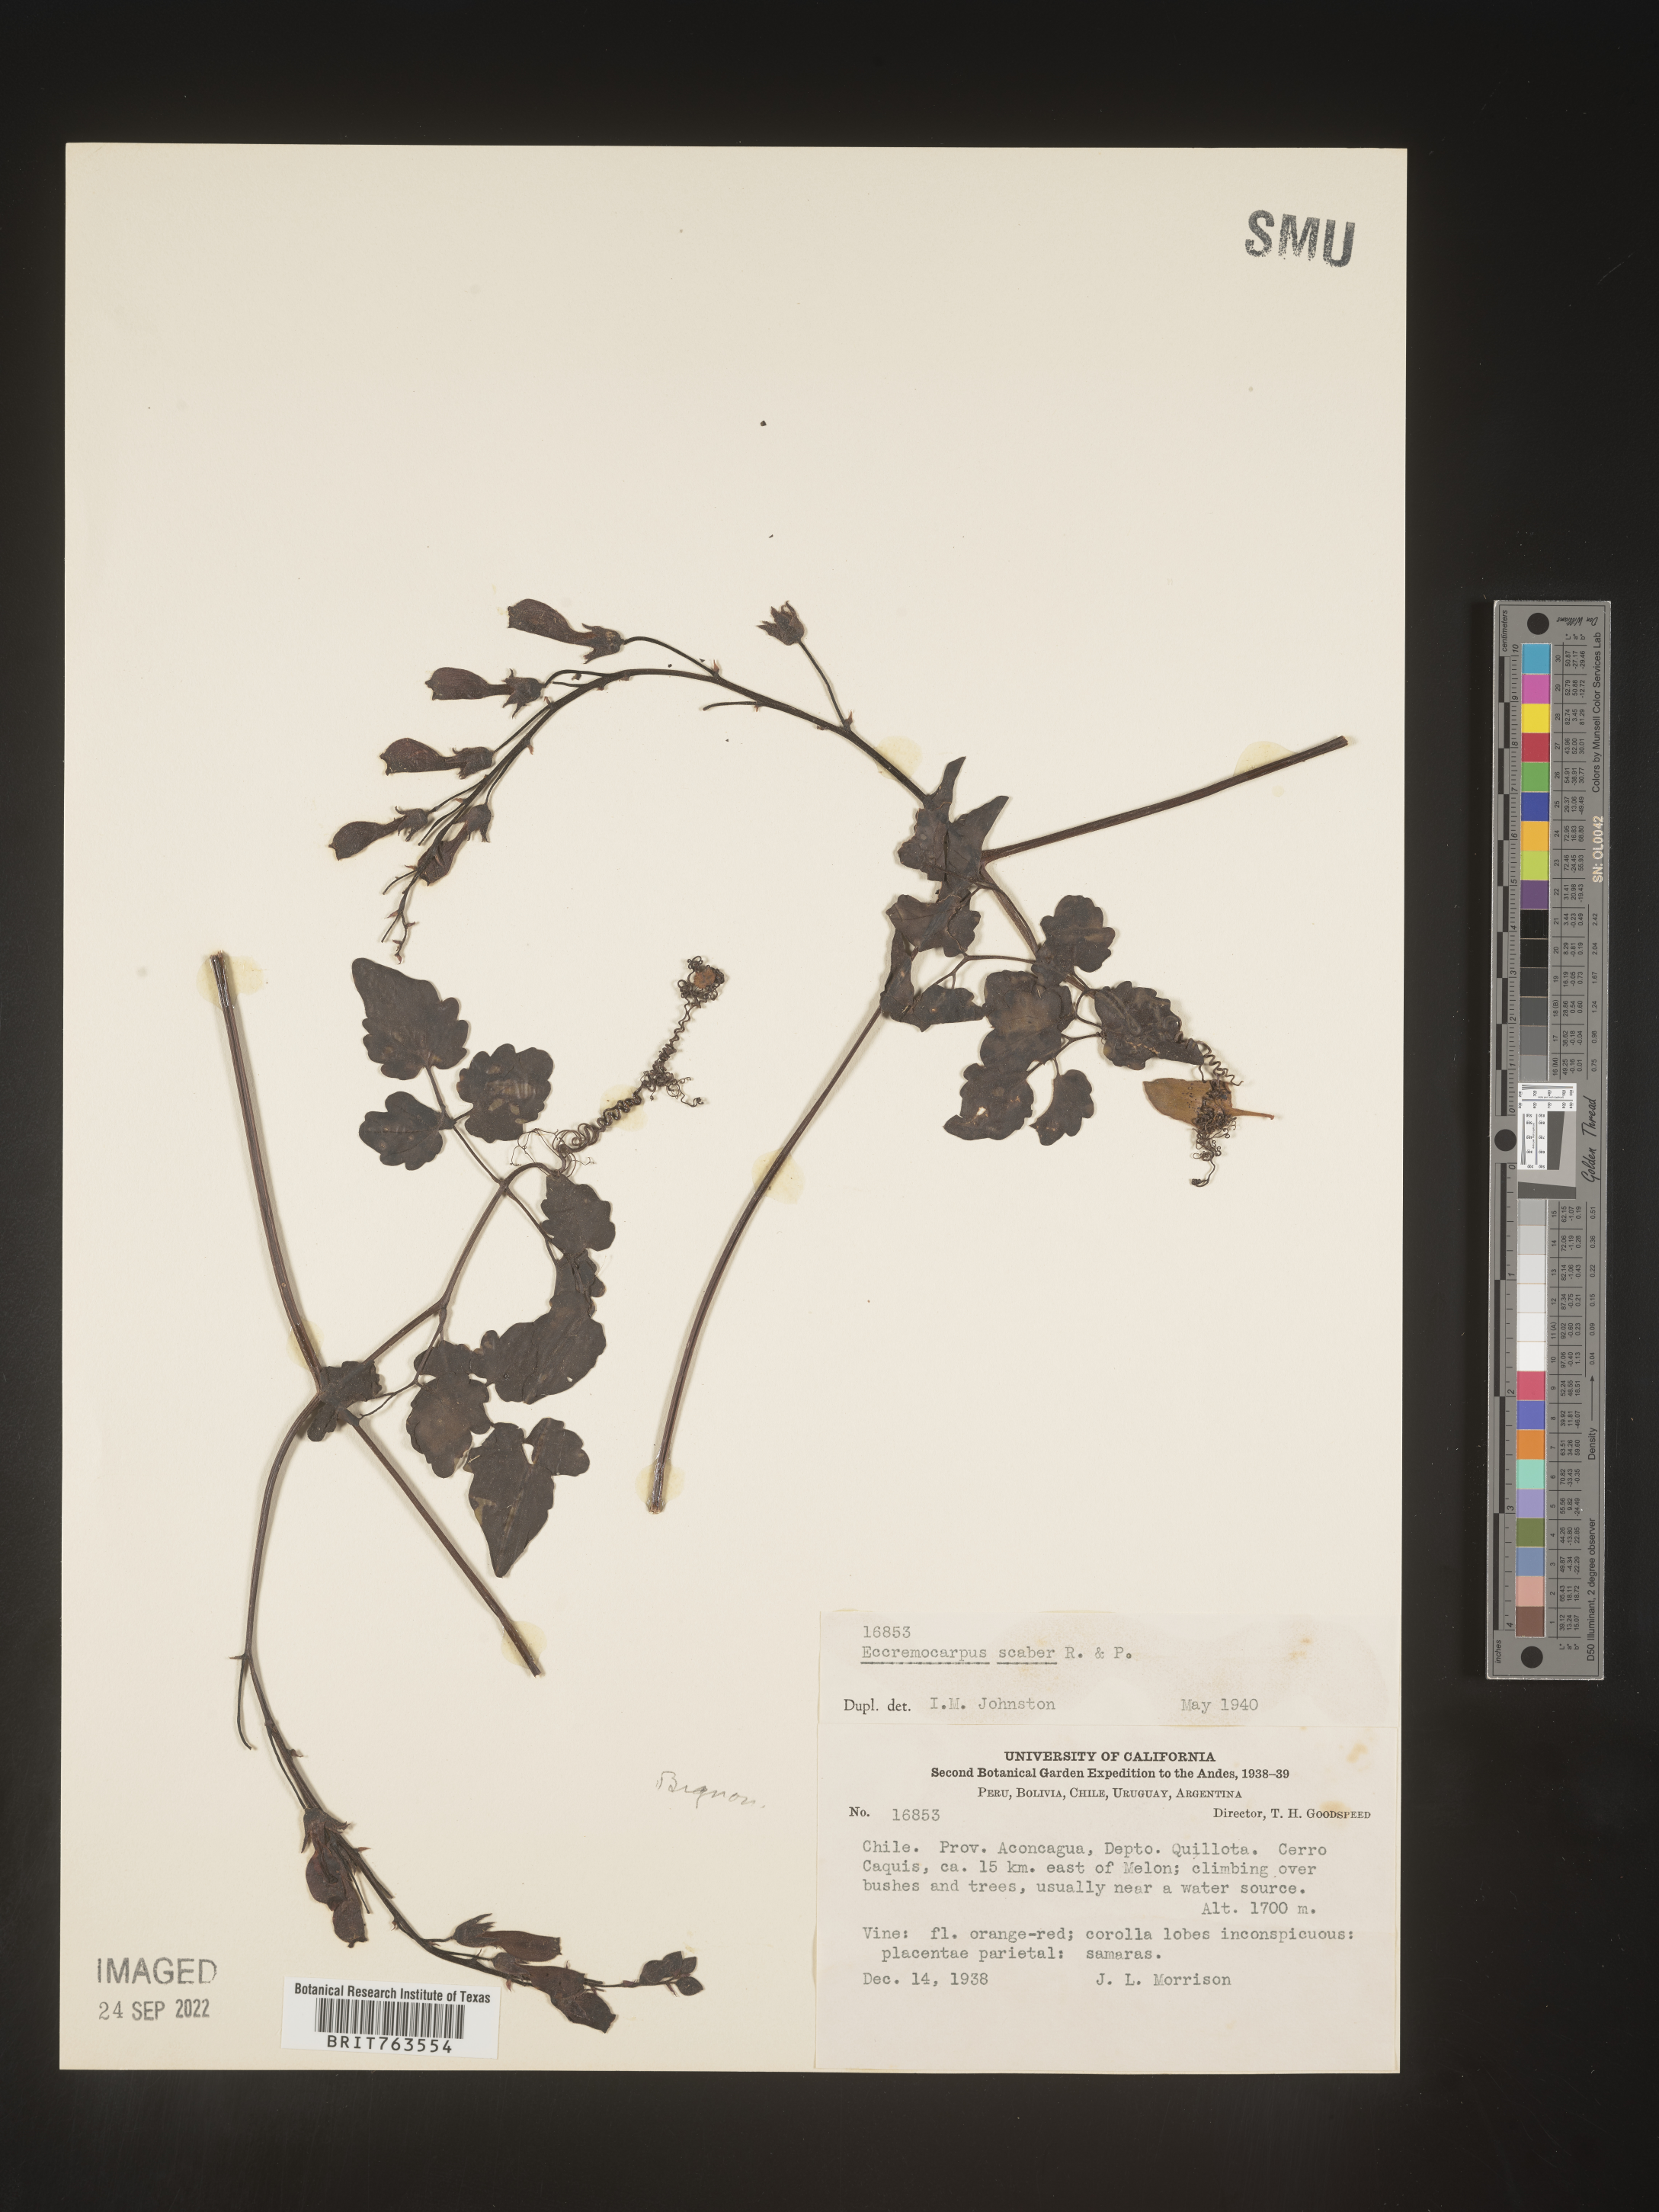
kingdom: Plantae
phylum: Tracheophyta
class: Magnoliopsida
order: Lamiales
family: Bignoniaceae
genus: Eccremocarpus
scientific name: Eccremocarpus
